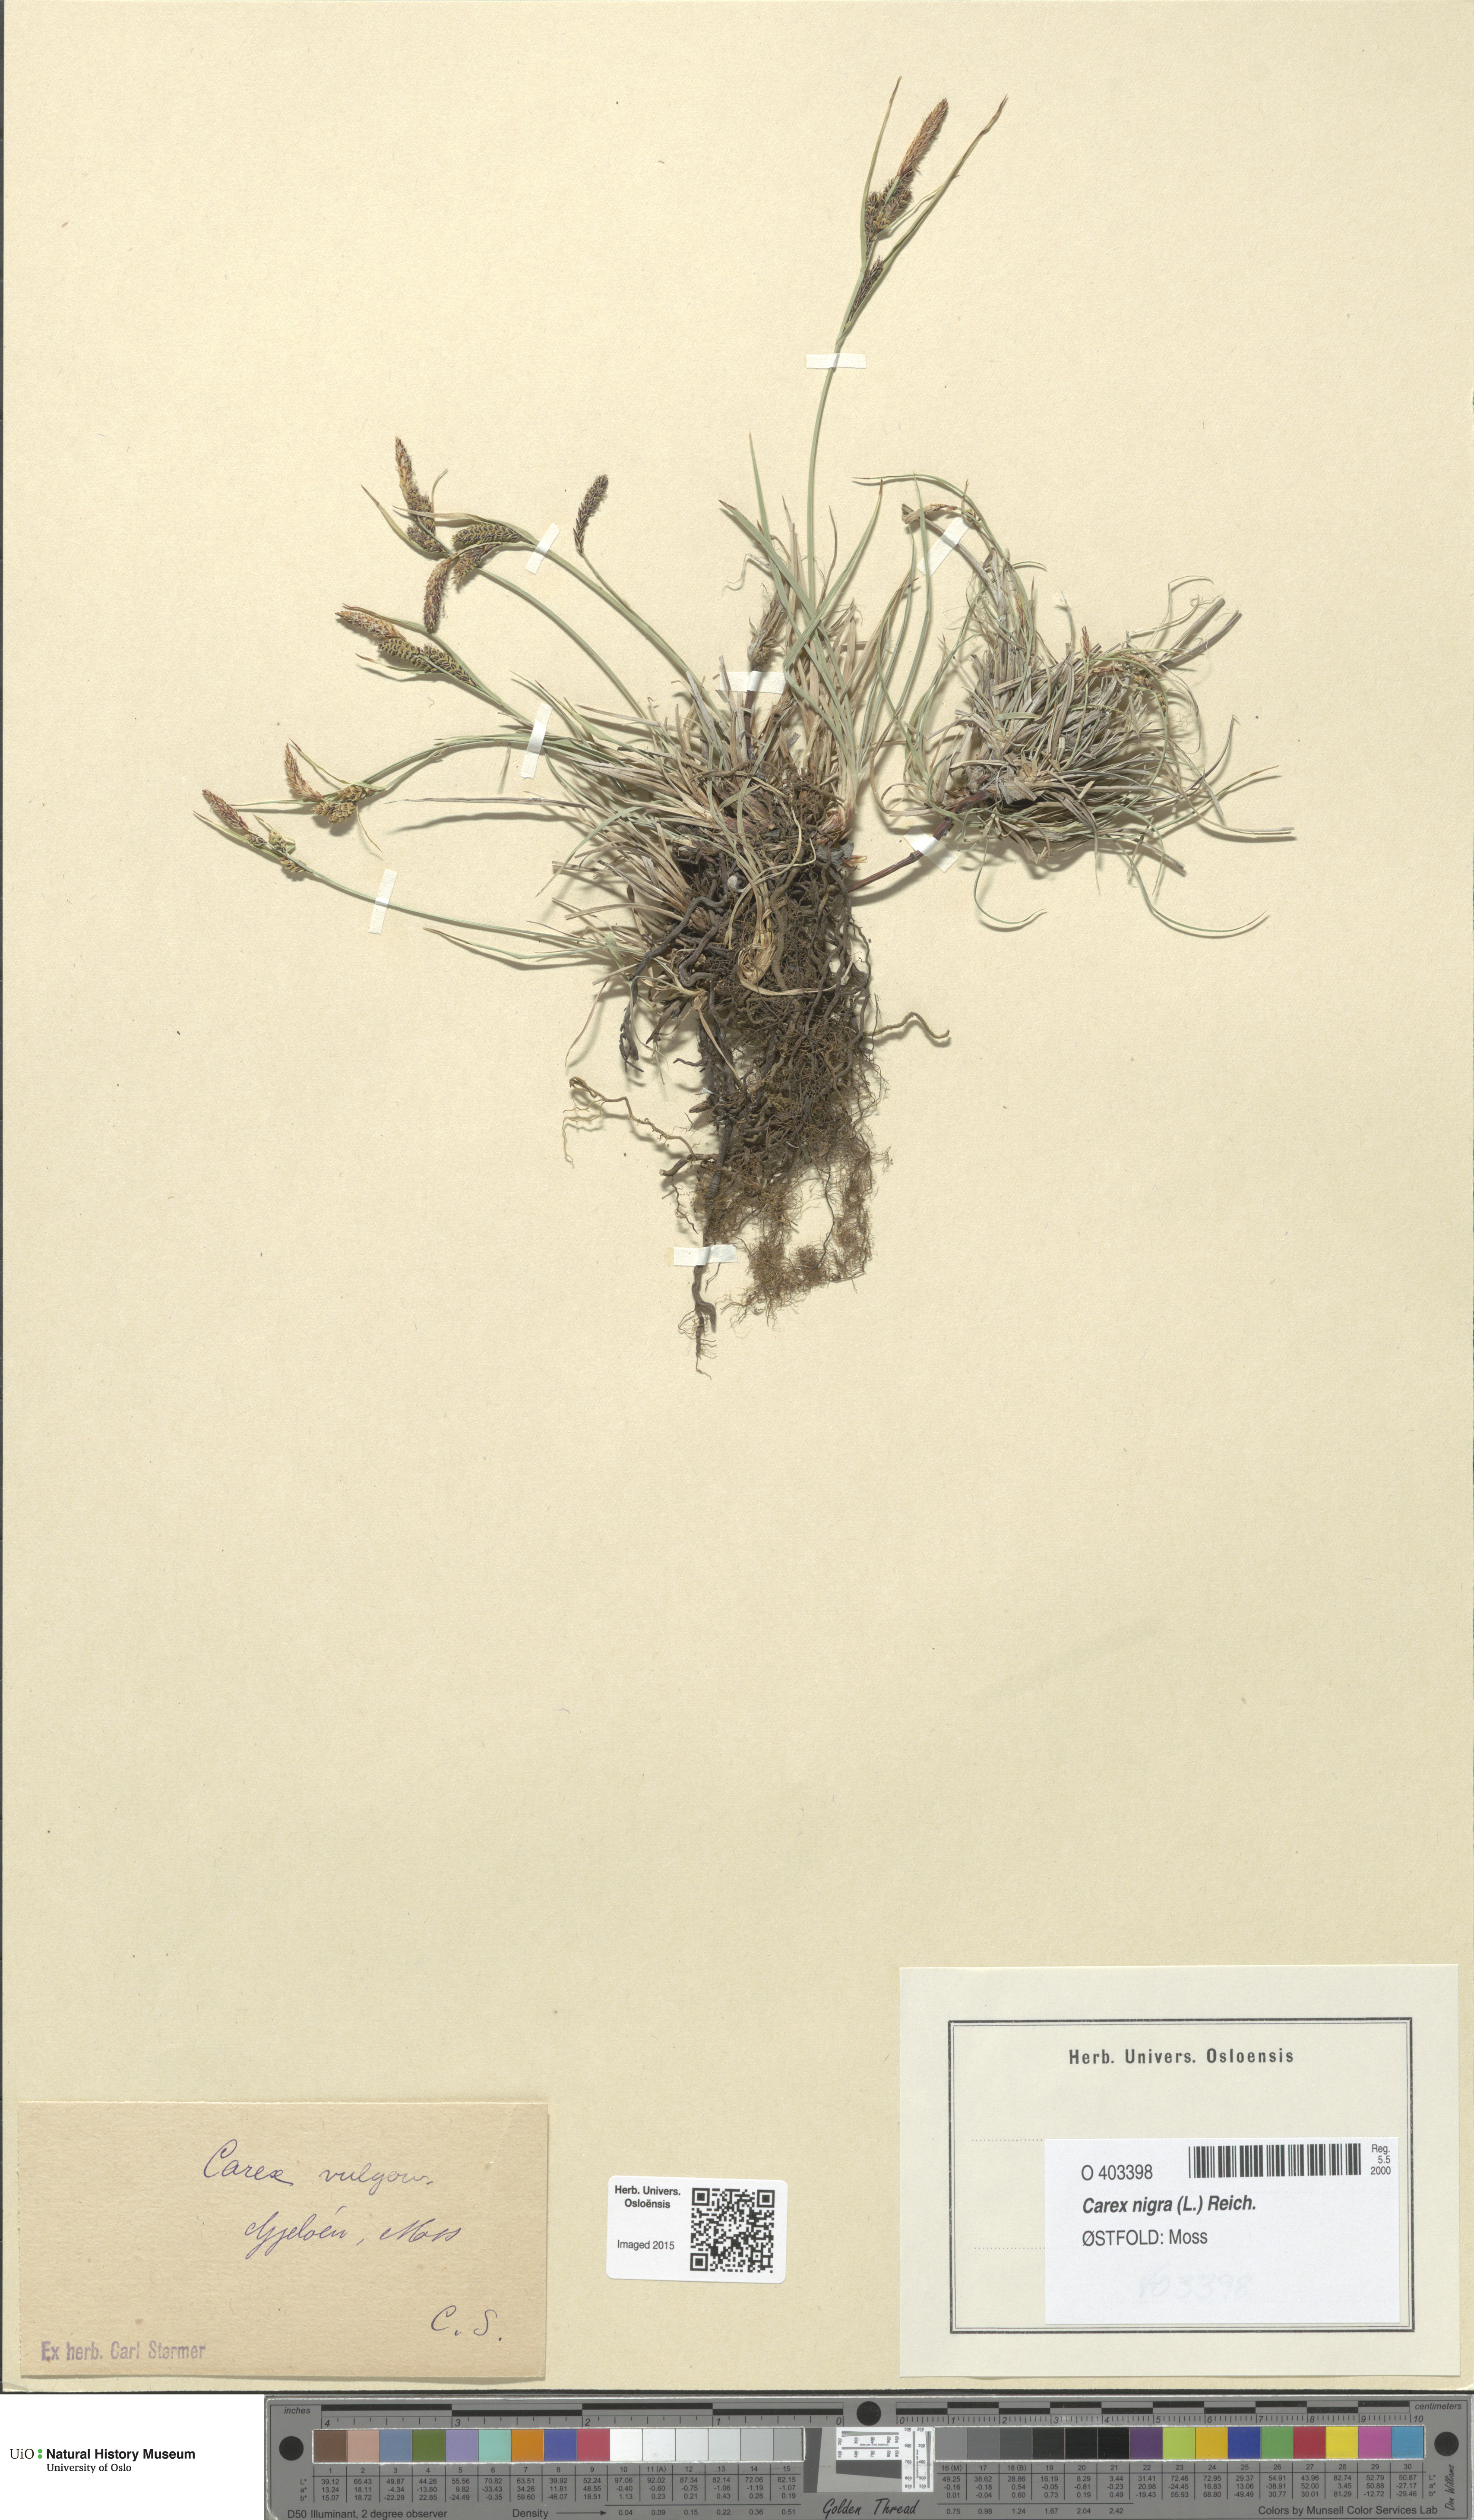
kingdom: Plantae
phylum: Tracheophyta
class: Liliopsida
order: Poales
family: Cyperaceae
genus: Carex
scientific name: Carex nigra
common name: Common sedge
